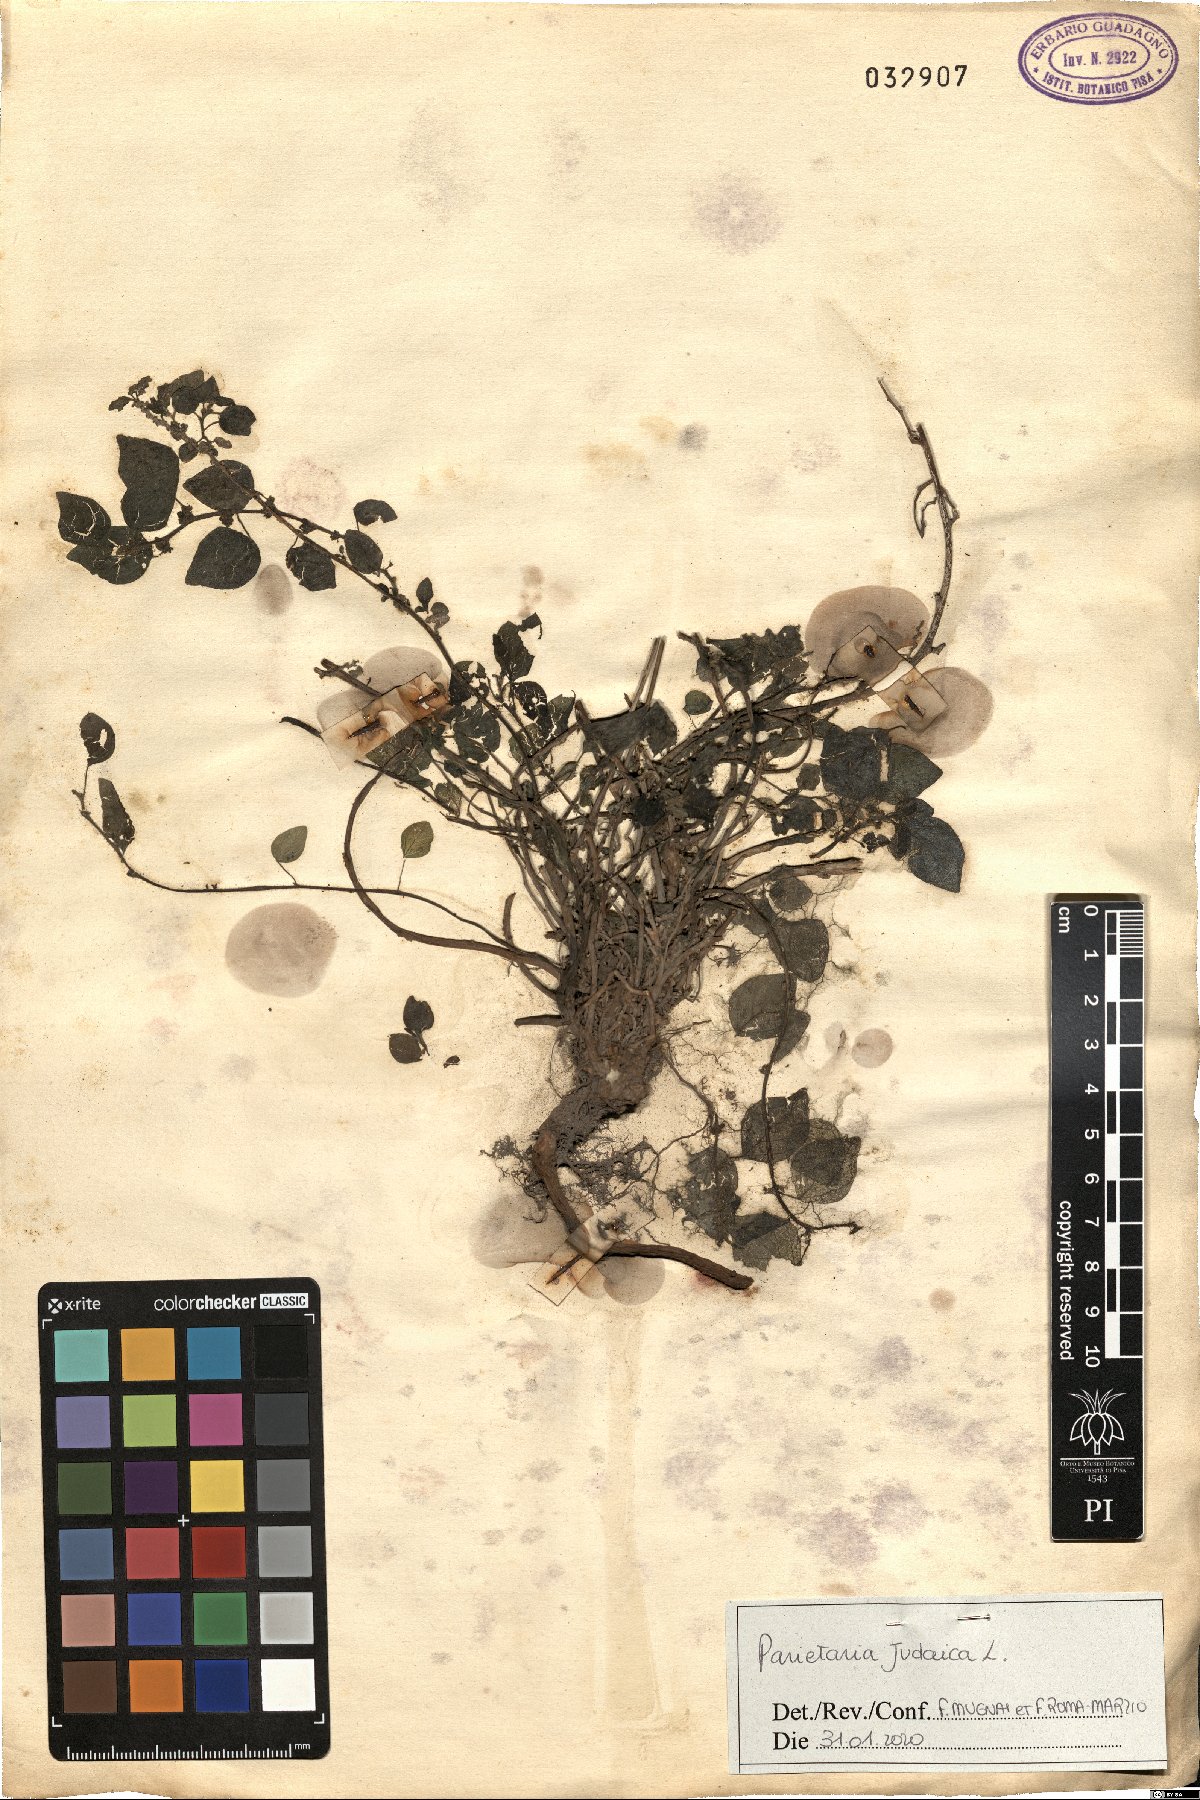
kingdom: Plantae
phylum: Tracheophyta
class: Magnoliopsida
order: Rosales
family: Urticaceae
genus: Parietaria
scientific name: Parietaria judaica
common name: Pellitory-of-the-wall
